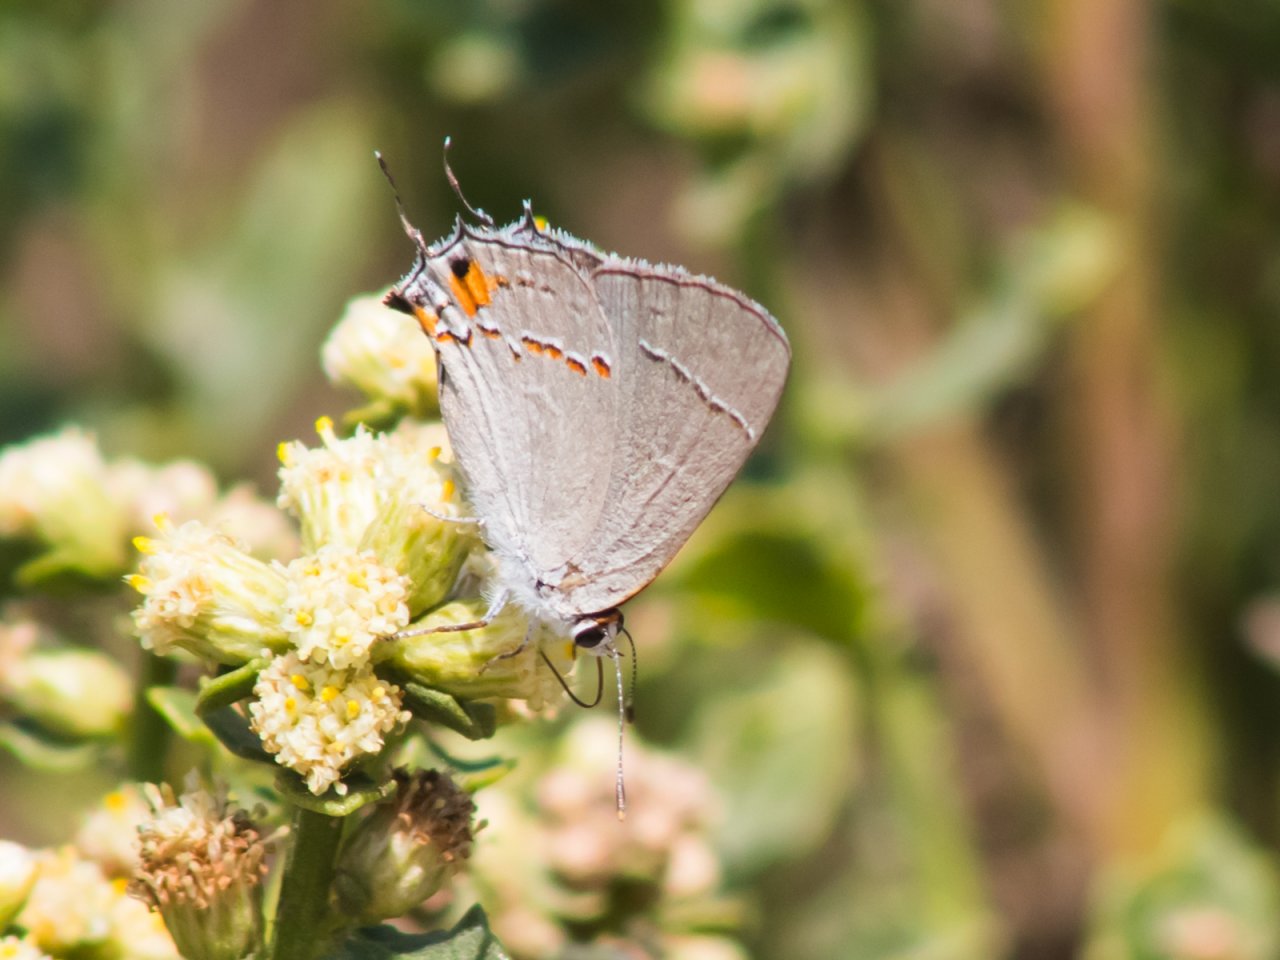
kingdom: Animalia
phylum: Arthropoda
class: Insecta
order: Lepidoptera
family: Lycaenidae
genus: Strymon
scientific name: Strymon melinus
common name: Gray Hairstreak
